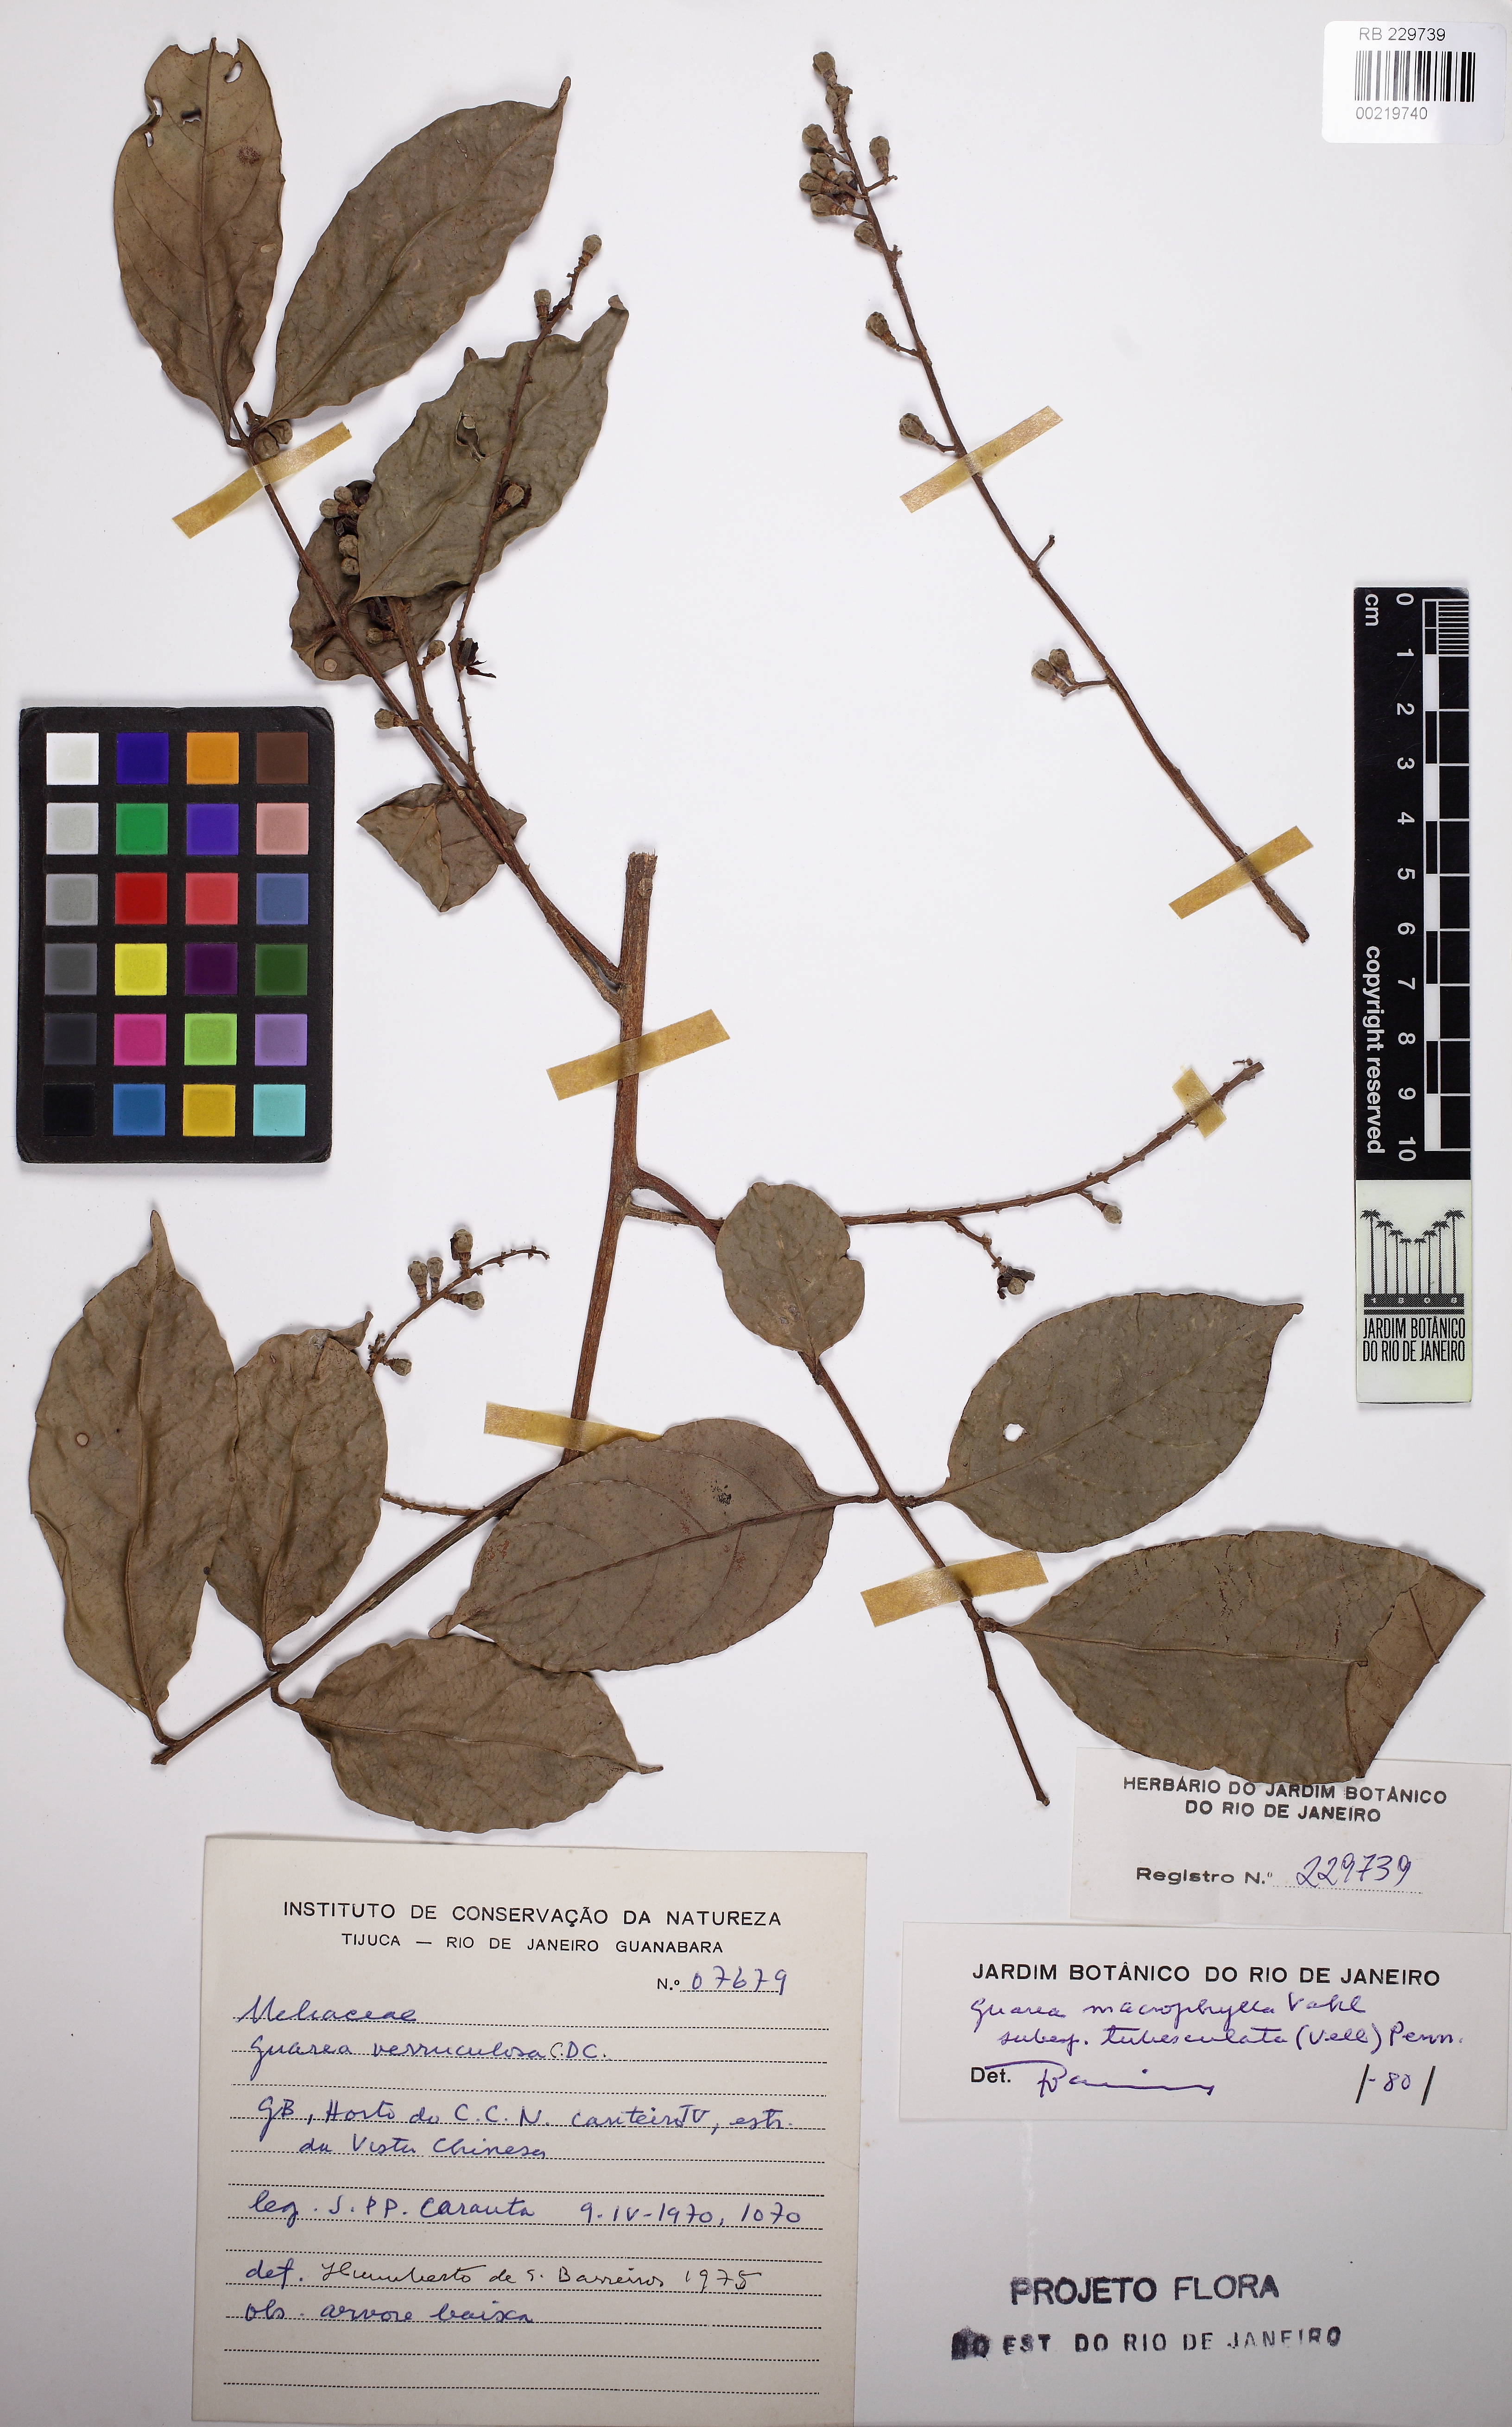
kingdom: Plantae
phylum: Tracheophyta
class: Magnoliopsida
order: Sapindales
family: Meliaceae
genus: Guarea
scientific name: Guarea macrophylla
